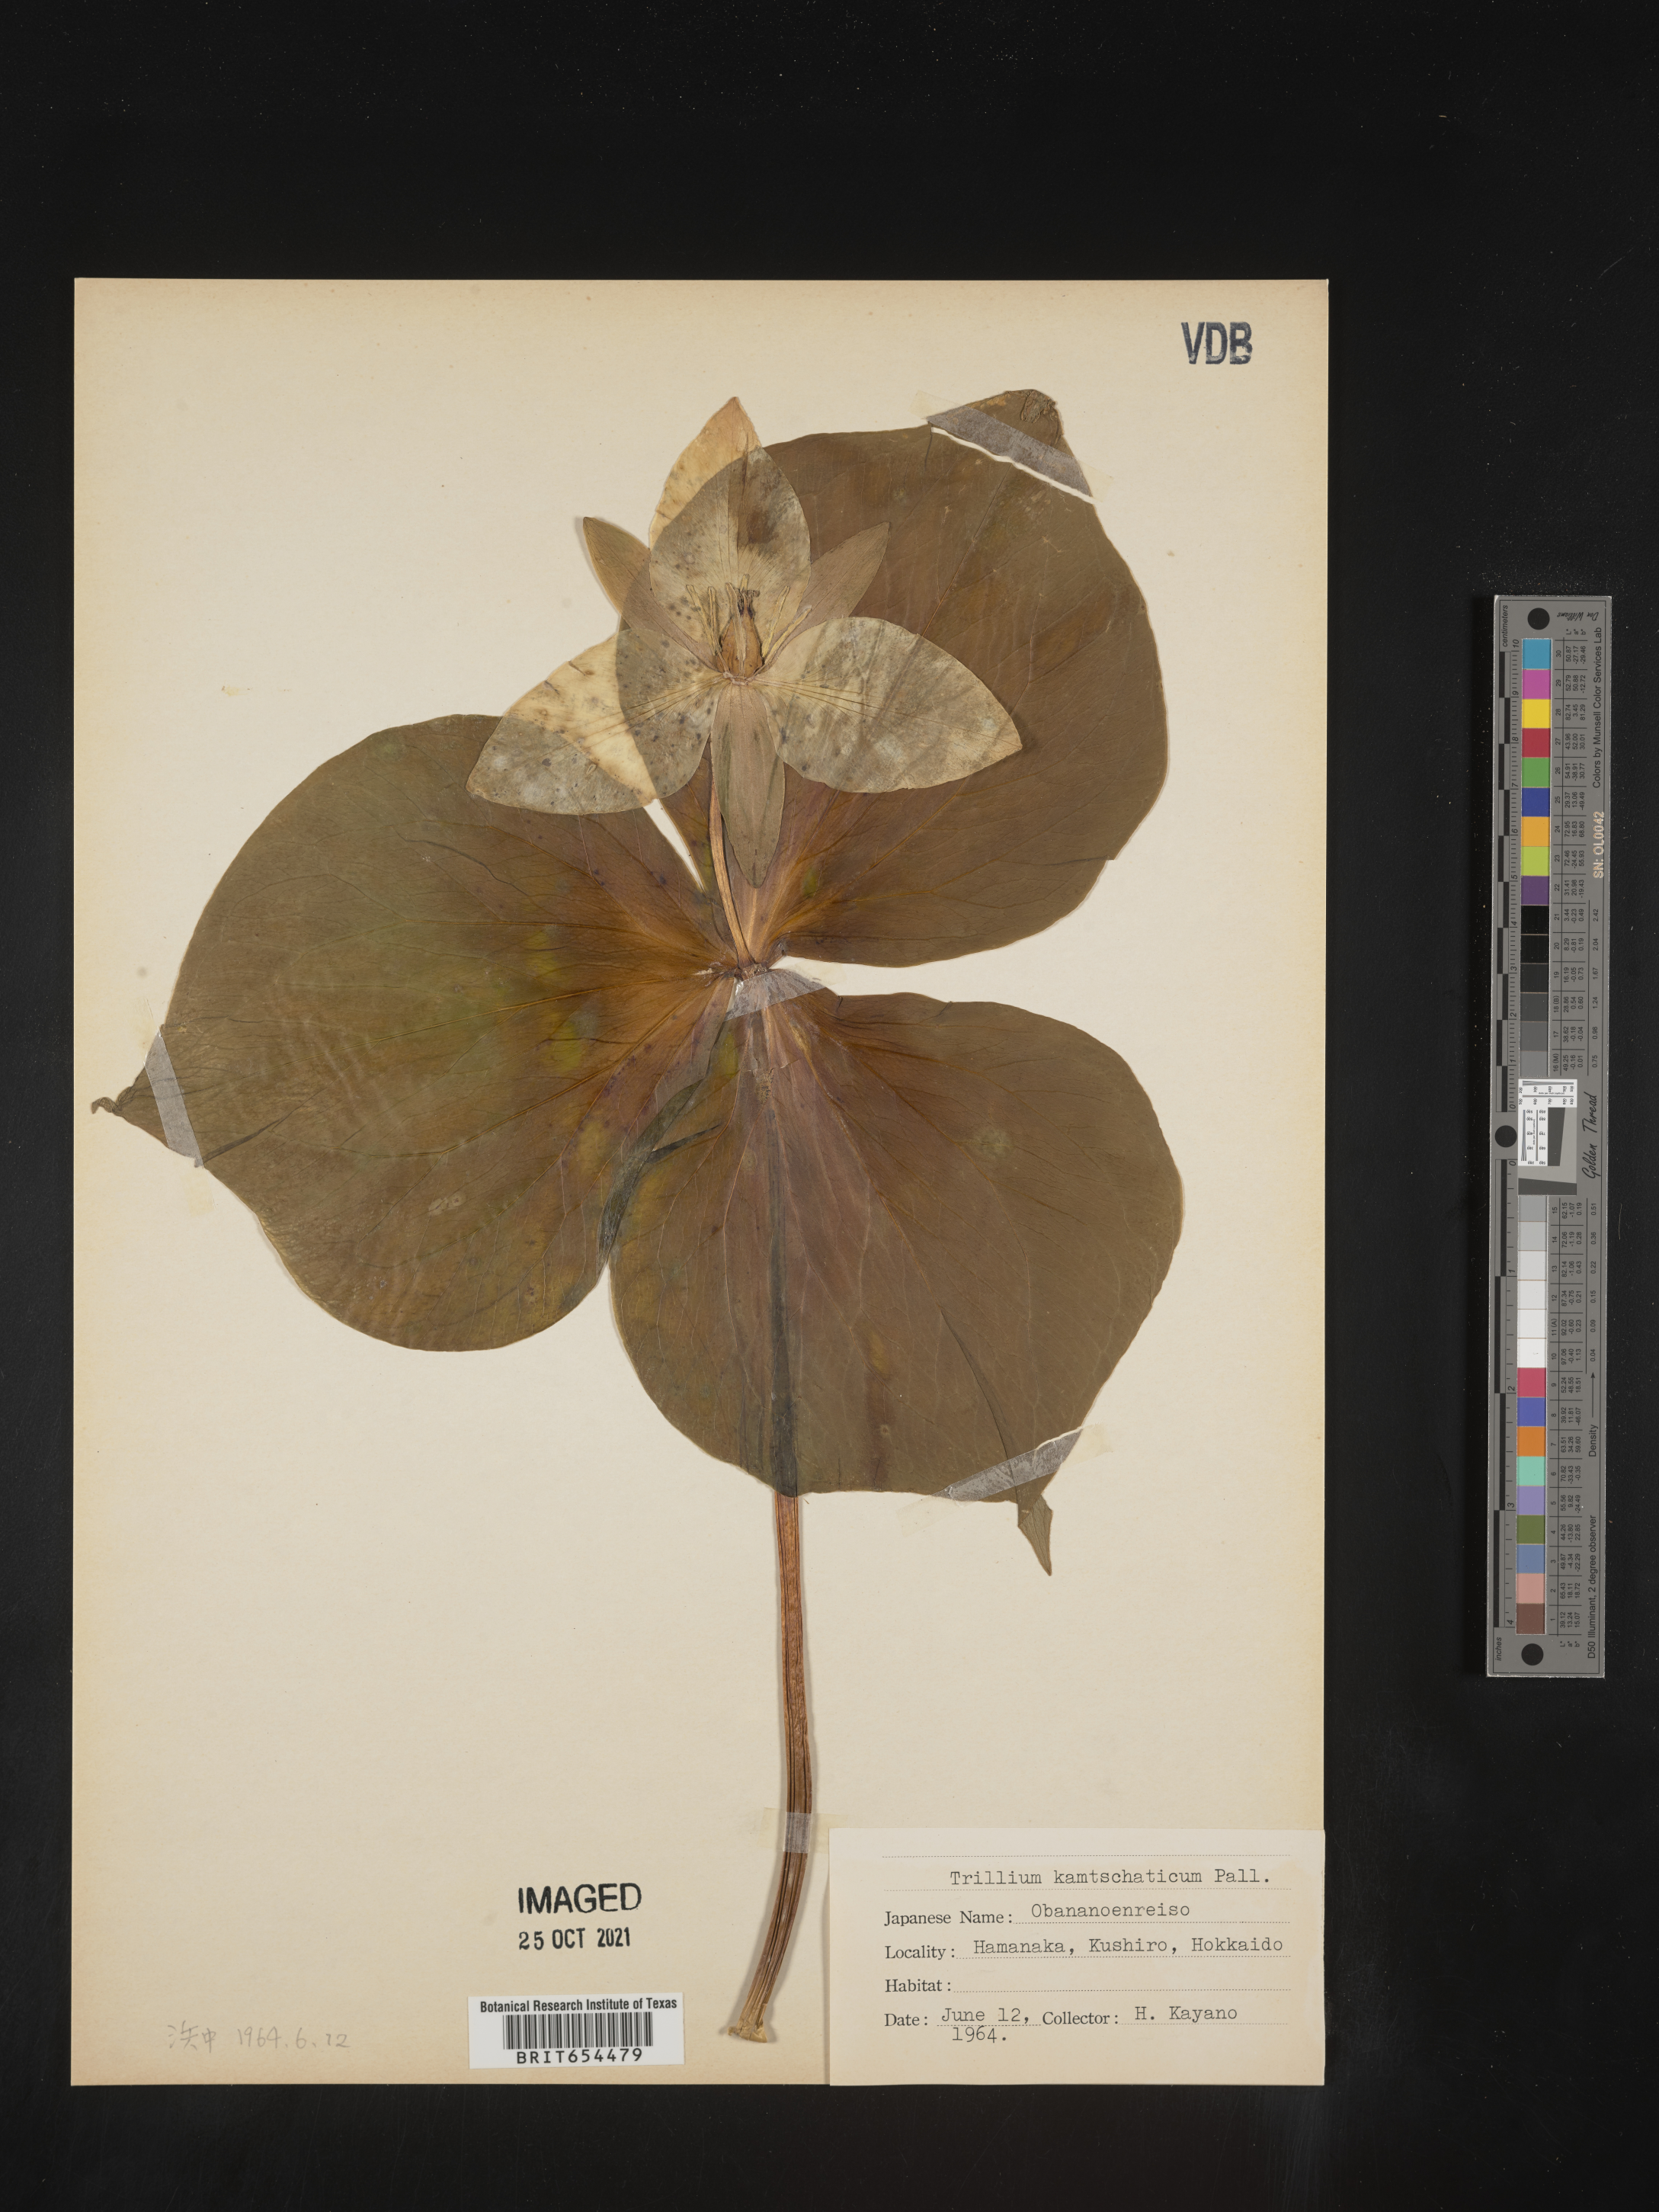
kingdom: Plantae
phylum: Tracheophyta
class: Liliopsida
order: Liliales
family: Melanthiaceae
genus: Trillium
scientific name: Trillium
